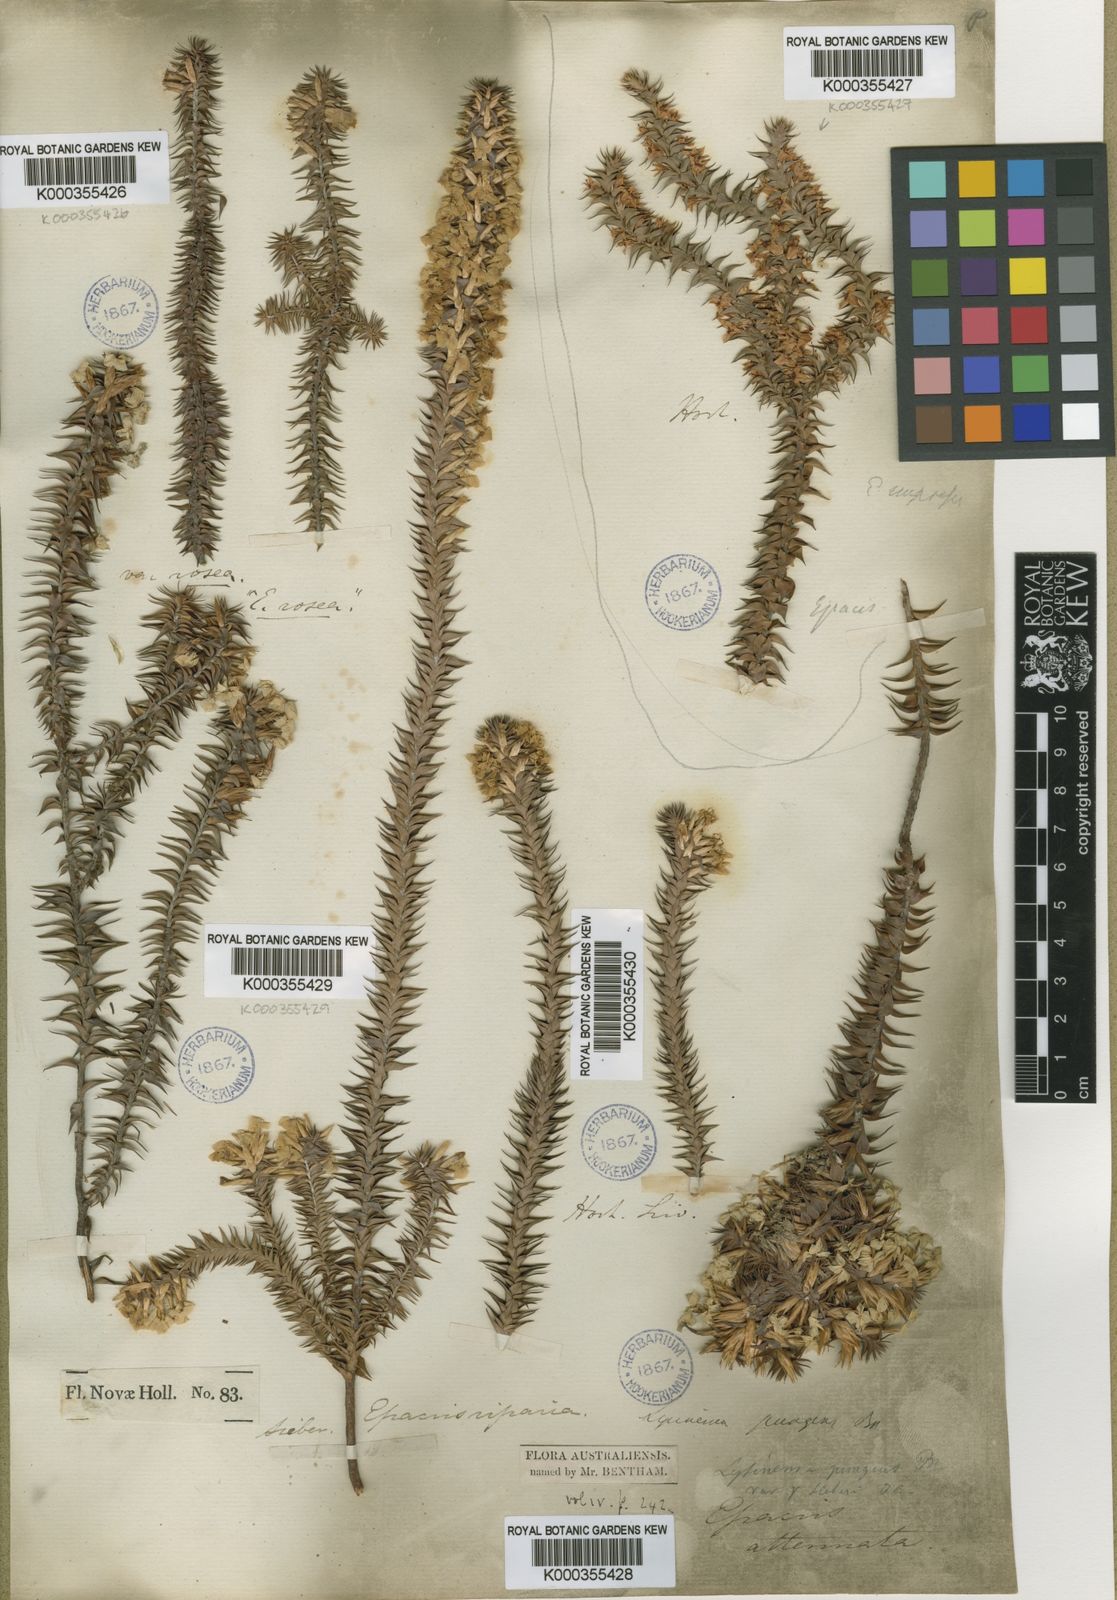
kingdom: Plantae
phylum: Tracheophyta
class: Magnoliopsida
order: Ericales
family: Ericaceae
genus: Woollsia
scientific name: Woollsia pungens
